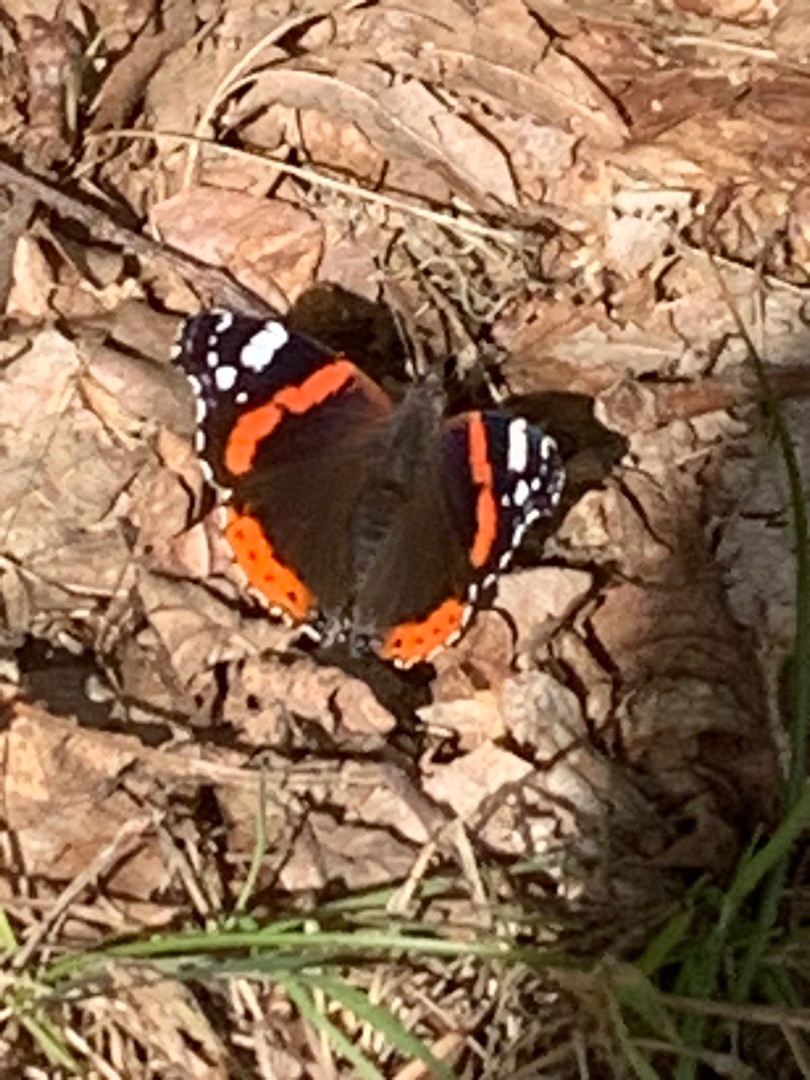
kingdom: Animalia
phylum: Arthropoda
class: Insecta
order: Lepidoptera
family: Nymphalidae
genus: Vanessa
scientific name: Vanessa atalanta
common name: Admiral
